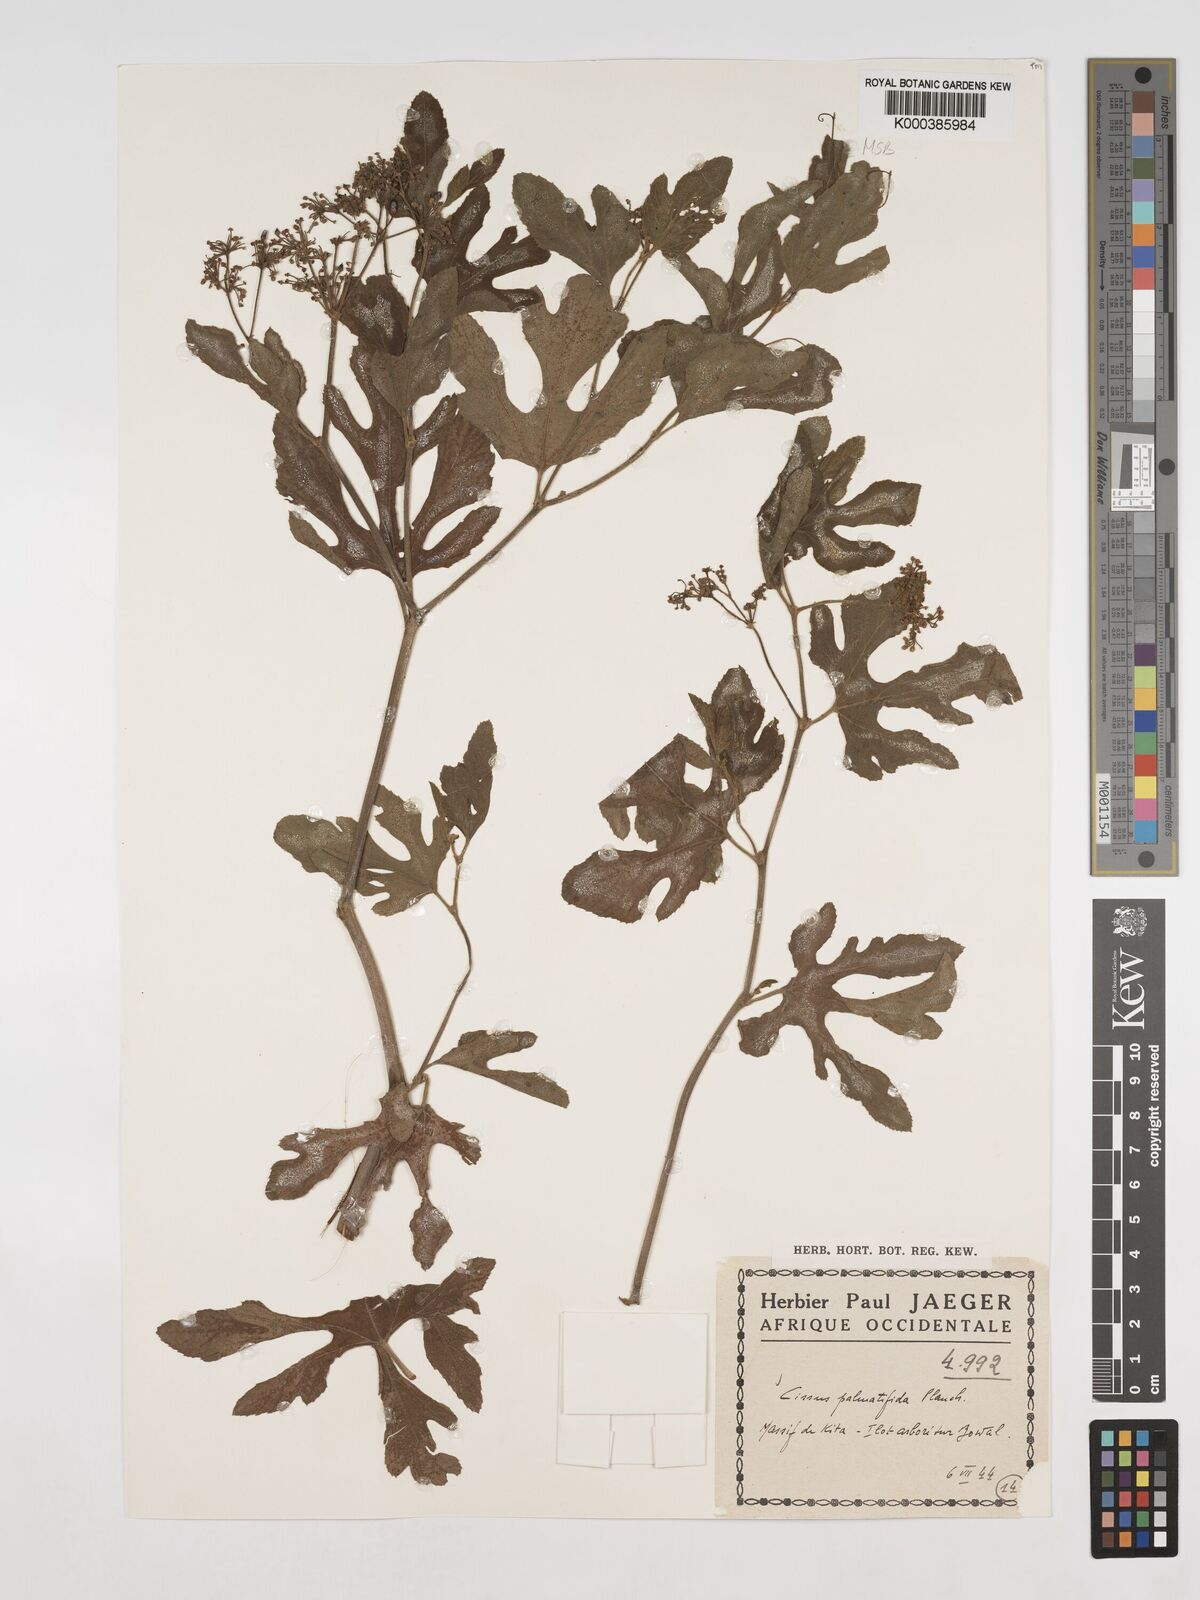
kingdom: Plantae
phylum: Tracheophyta
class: Magnoliopsida
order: Vitales
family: Vitaceae
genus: Cissus
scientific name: Cissus palmatifida
